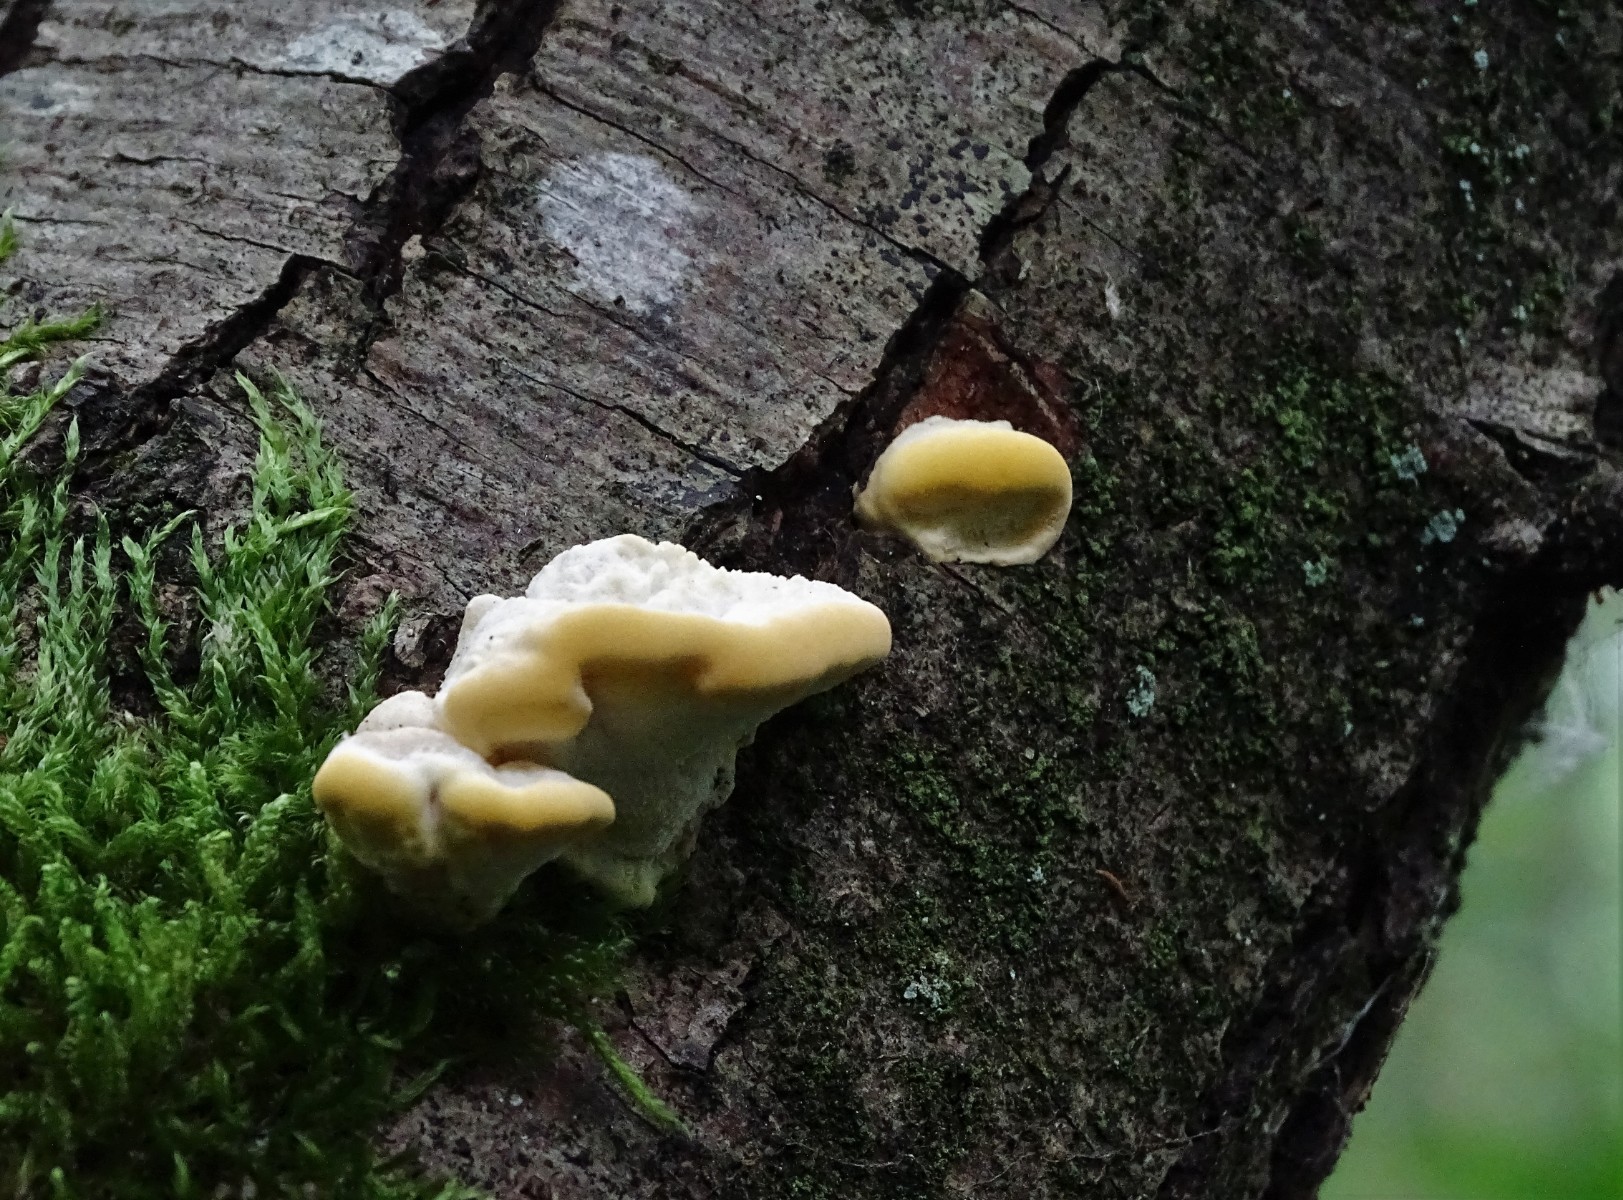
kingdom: Fungi
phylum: Basidiomycota
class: Agaricomycetes
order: Polyporales
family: Steccherinaceae
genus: Antrodiella
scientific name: Antrodiella serpula
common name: gulrandet elastikporesvamp
